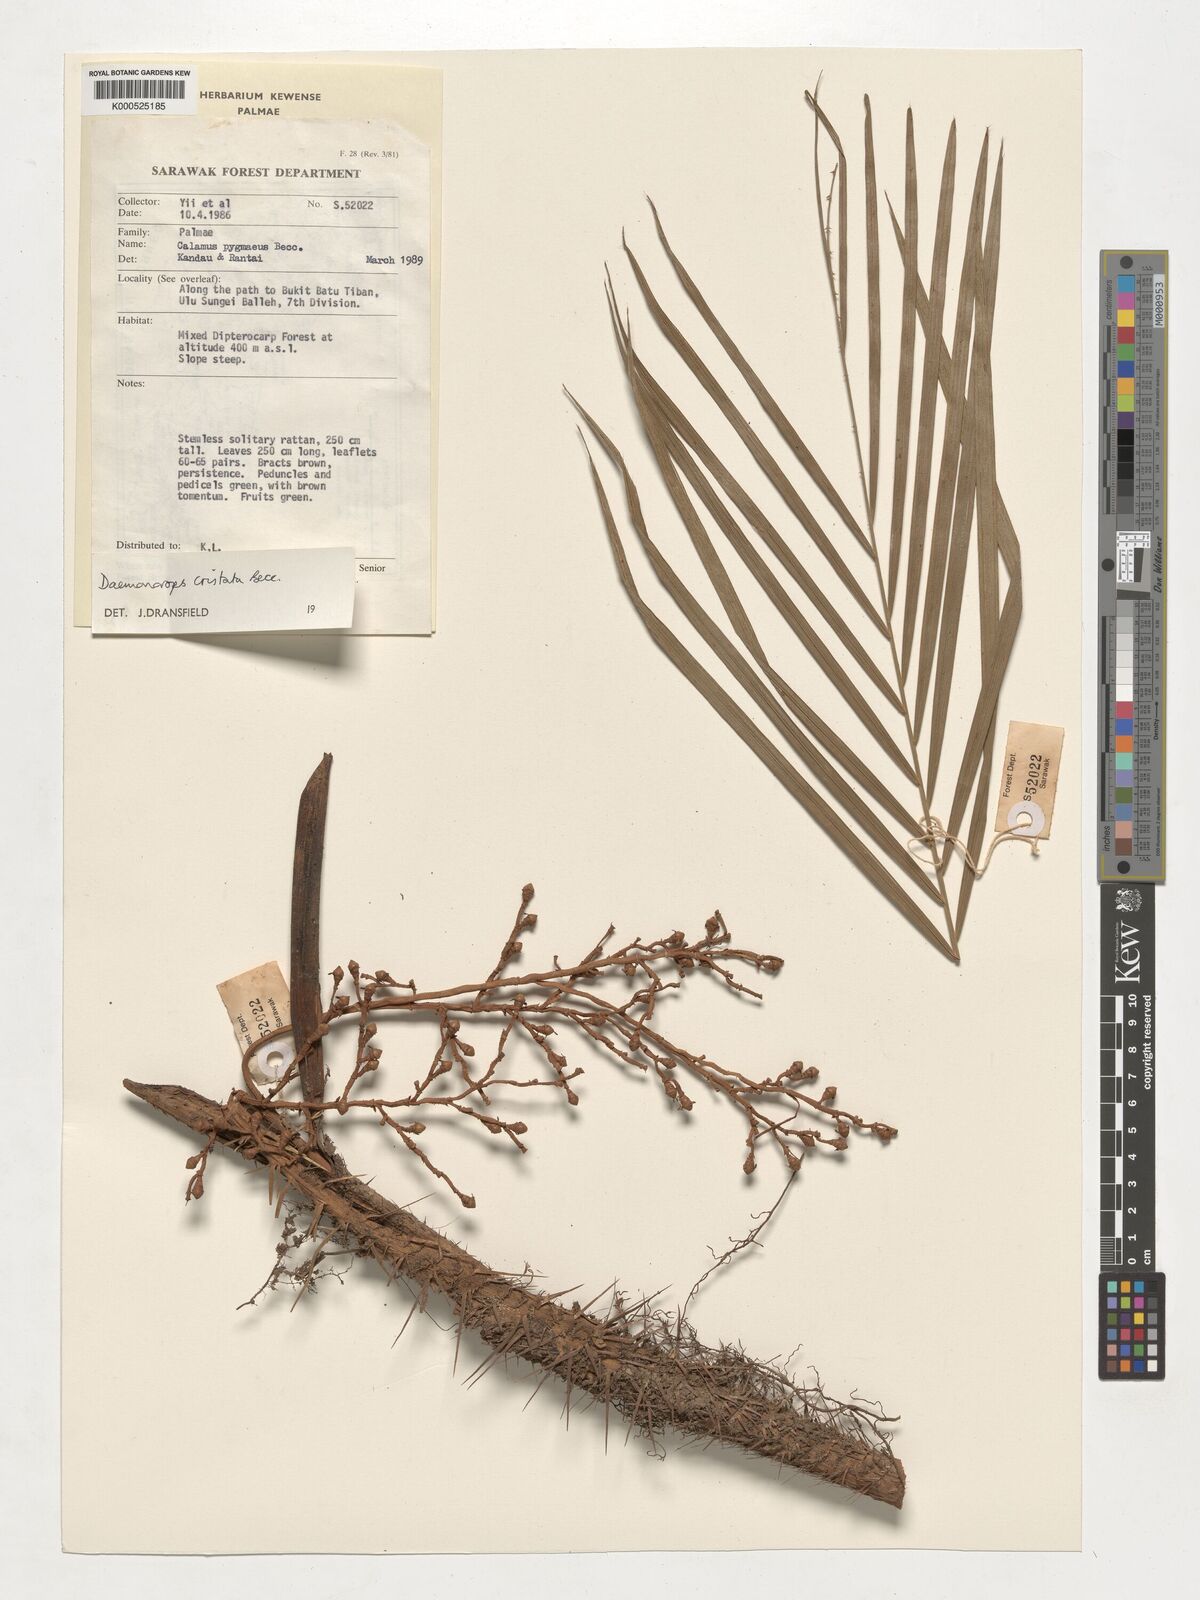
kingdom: Plantae
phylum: Tracheophyta
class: Liliopsida
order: Arecales
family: Arecaceae
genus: Calamus
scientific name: Calamus cristatus
